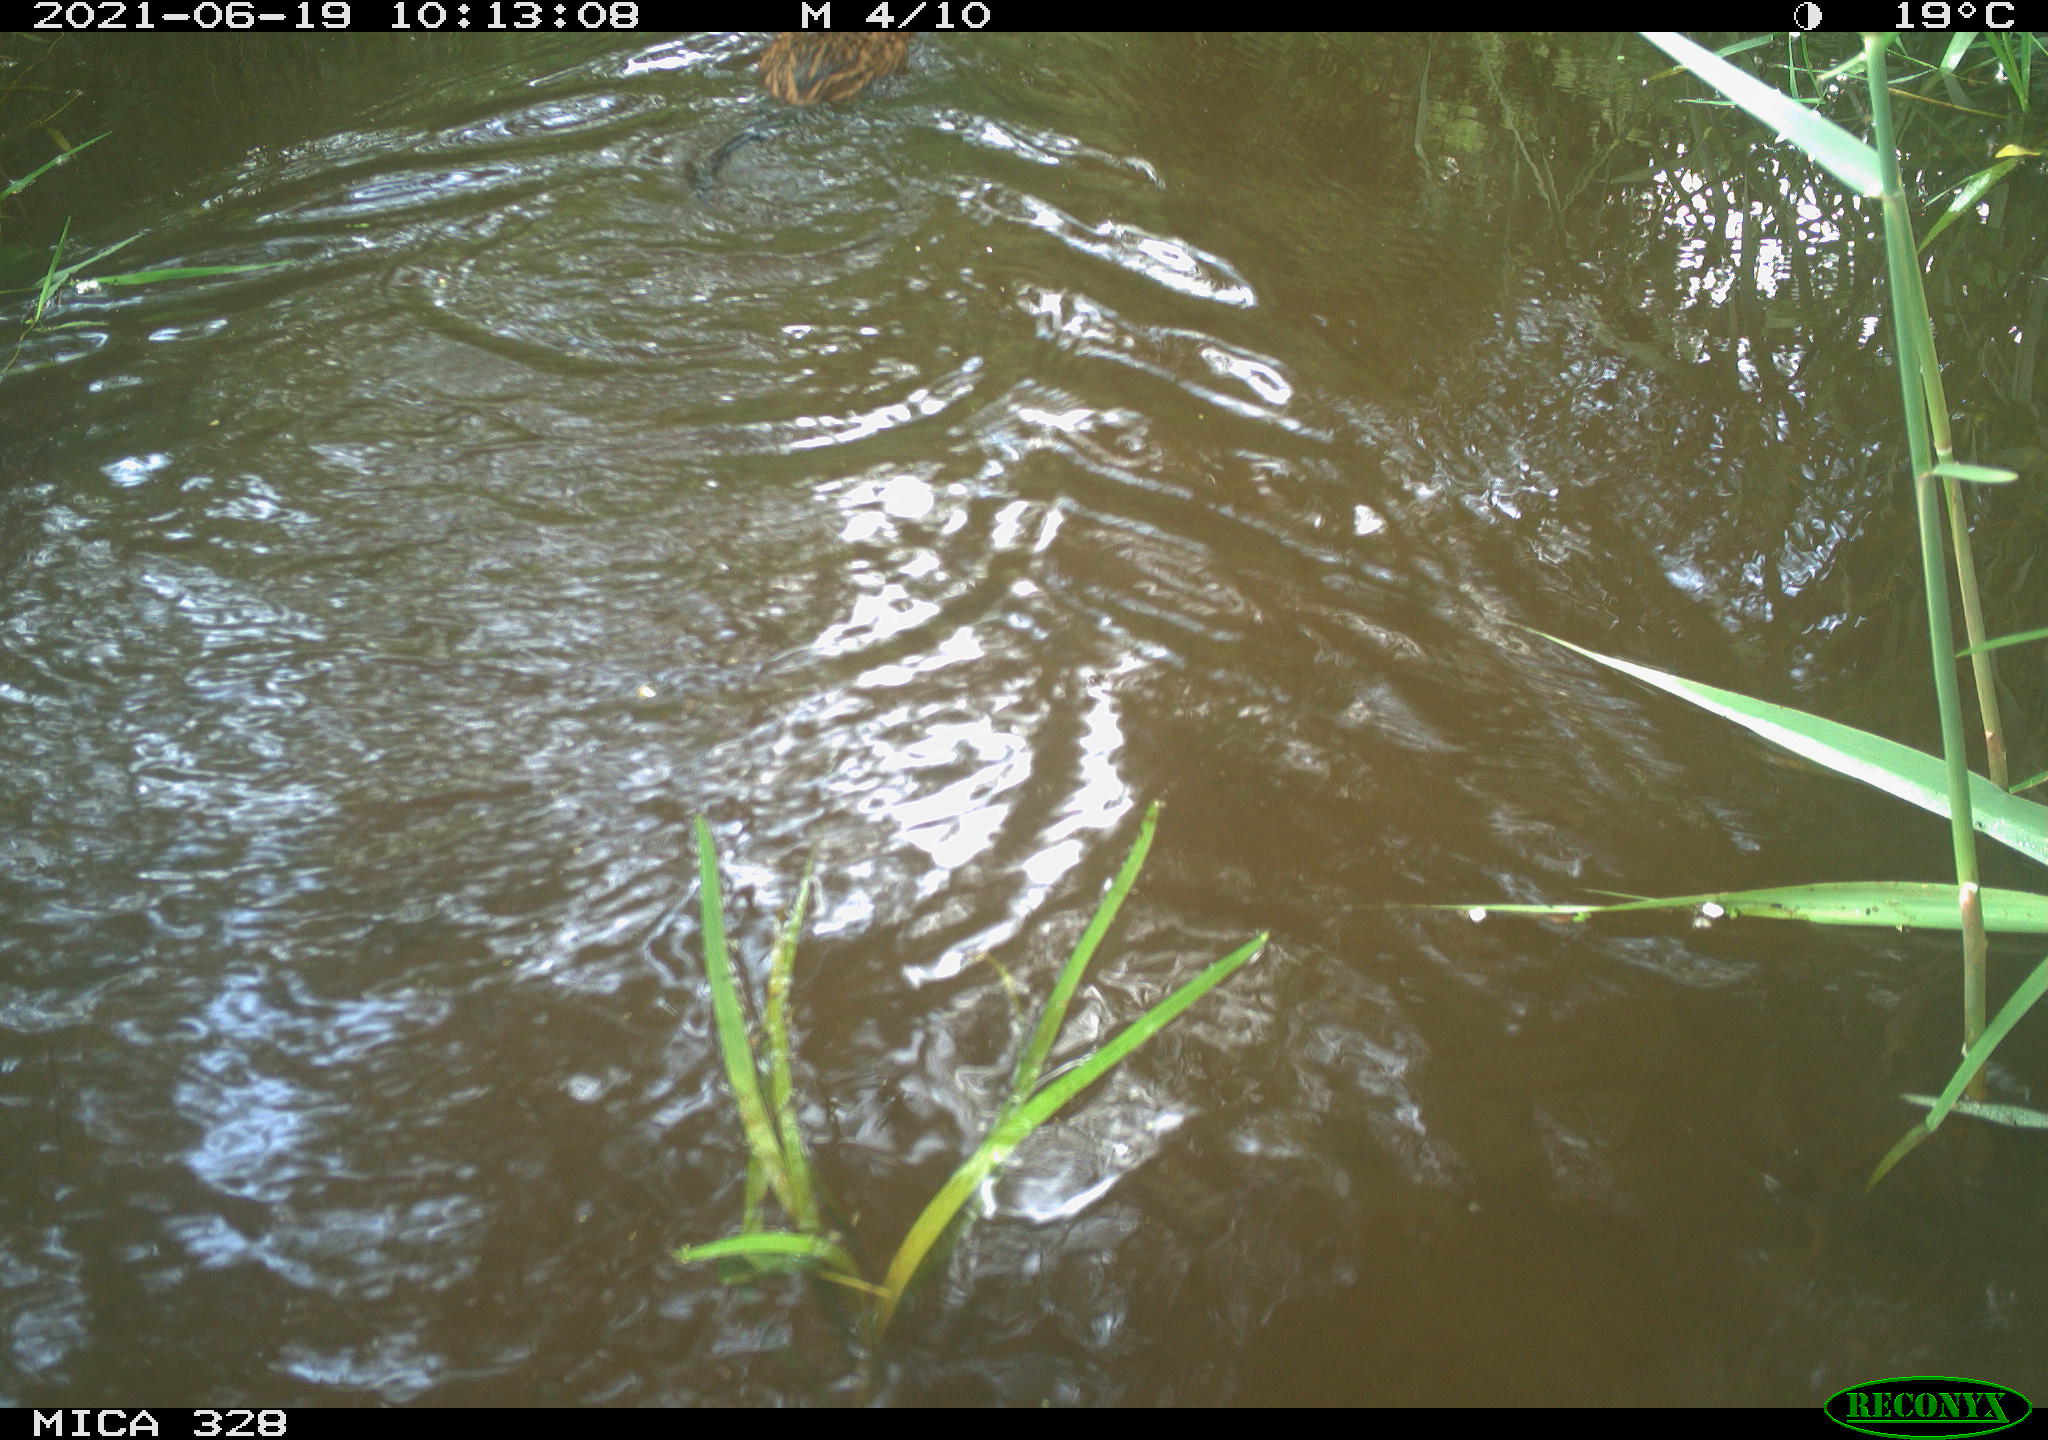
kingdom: Animalia
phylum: Chordata
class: Mammalia
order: Rodentia
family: Cricetidae
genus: Ondatra
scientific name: Ondatra zibethicus
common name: Muskrat
